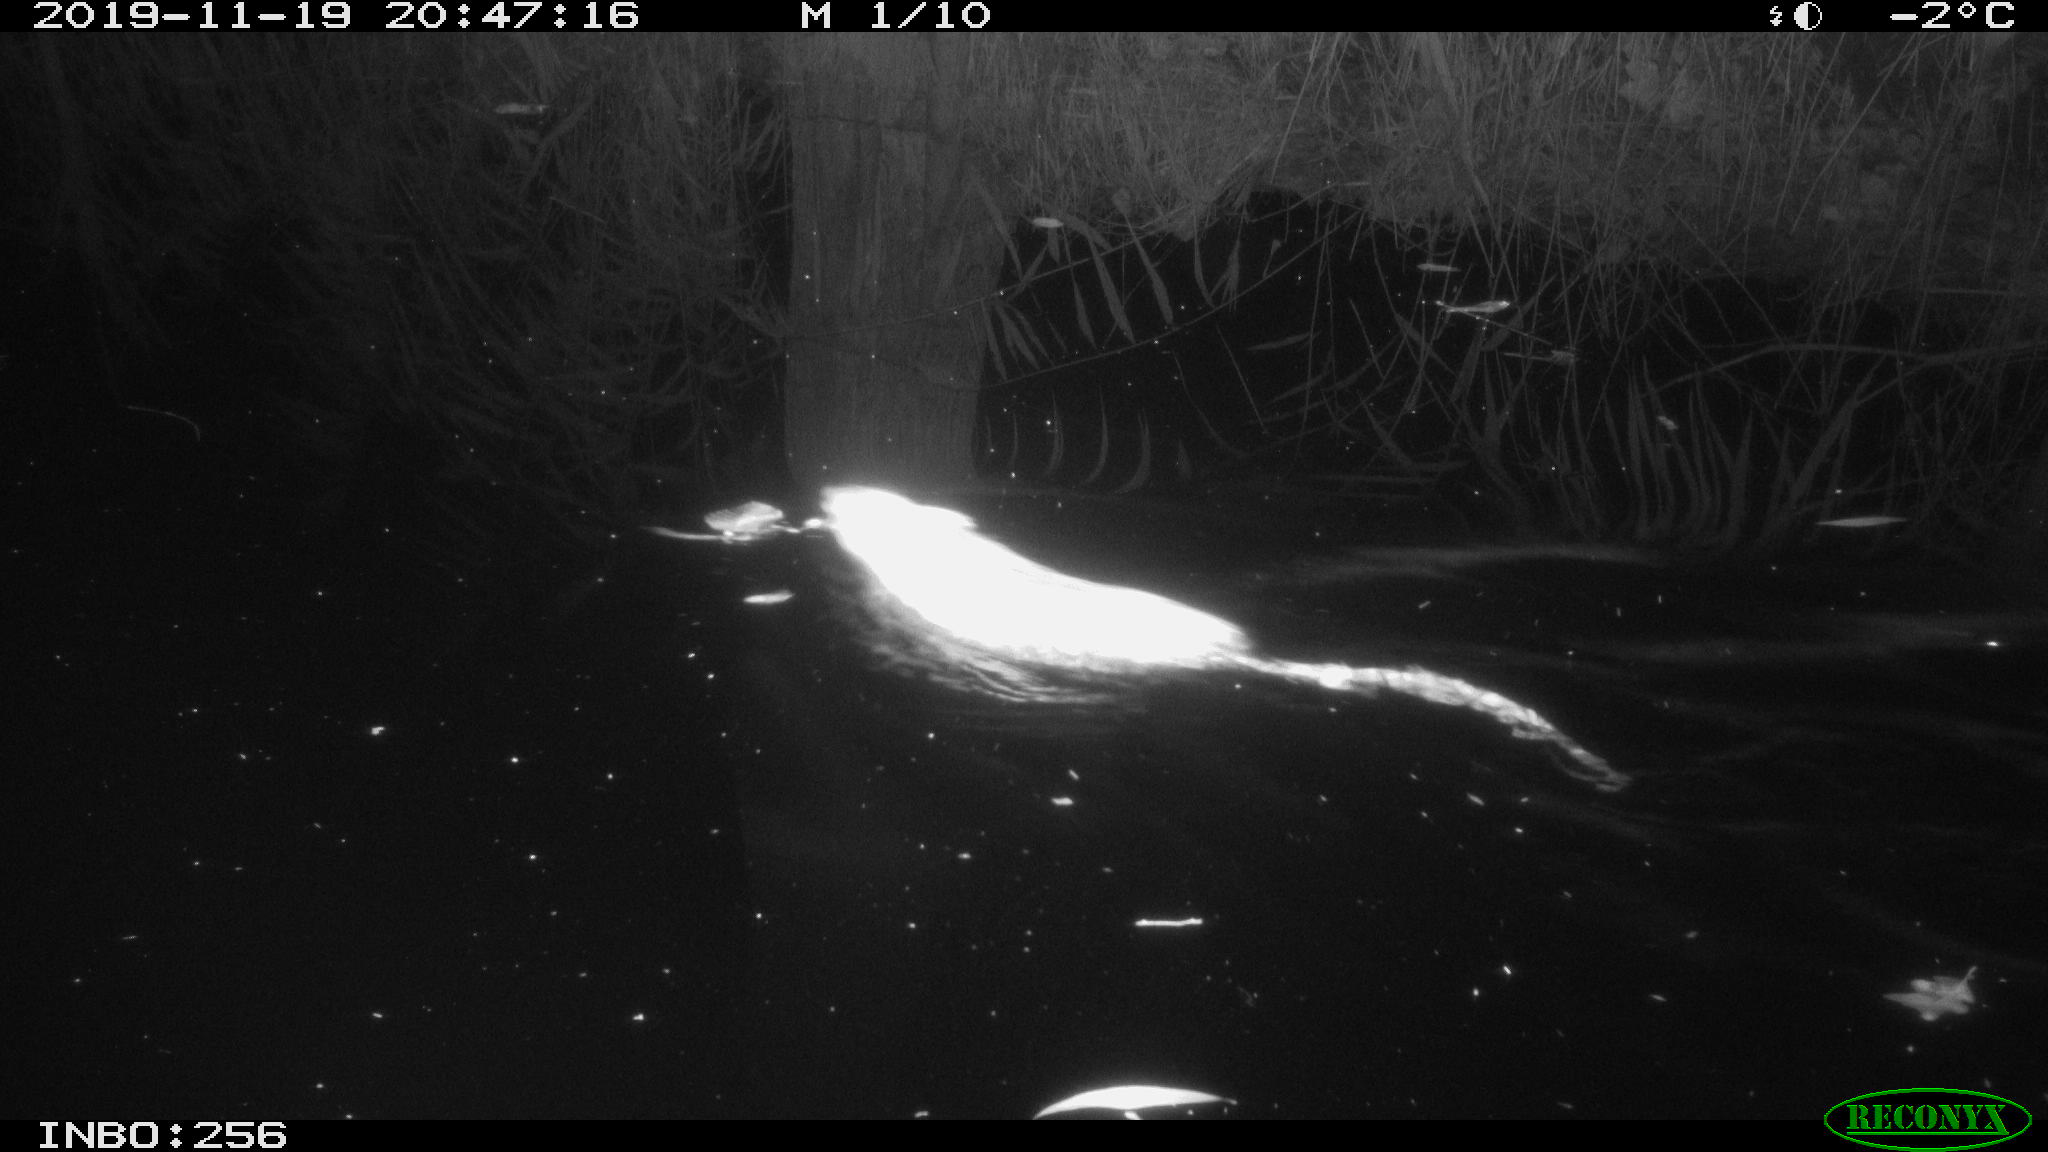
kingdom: Animalia
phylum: Chordata
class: Mammalia
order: Rodentia
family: Cricetidae
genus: Ondatra
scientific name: Ondatra zibethicus
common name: Muskrat
